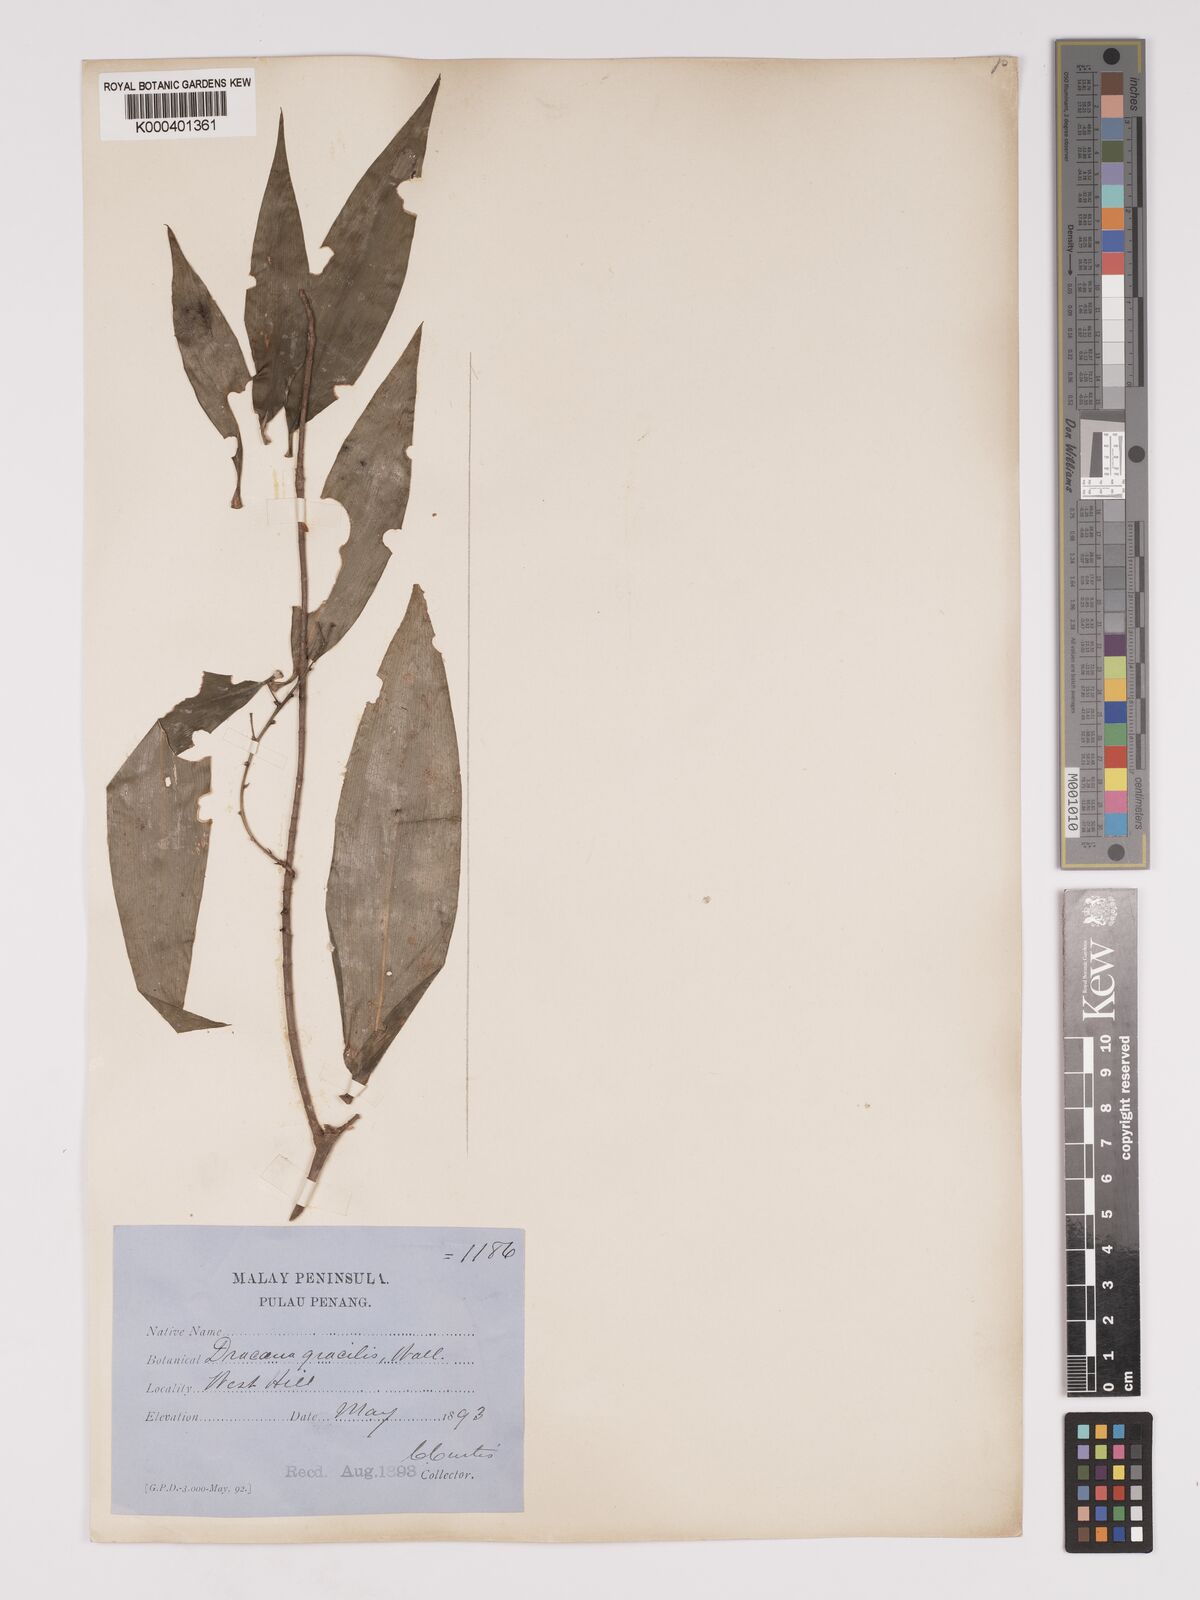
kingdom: Plantae
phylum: Tracheophyta
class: Liliopsida
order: Asparagales
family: Asparagaceae
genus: Dracaena
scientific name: Dracaena elliptica
